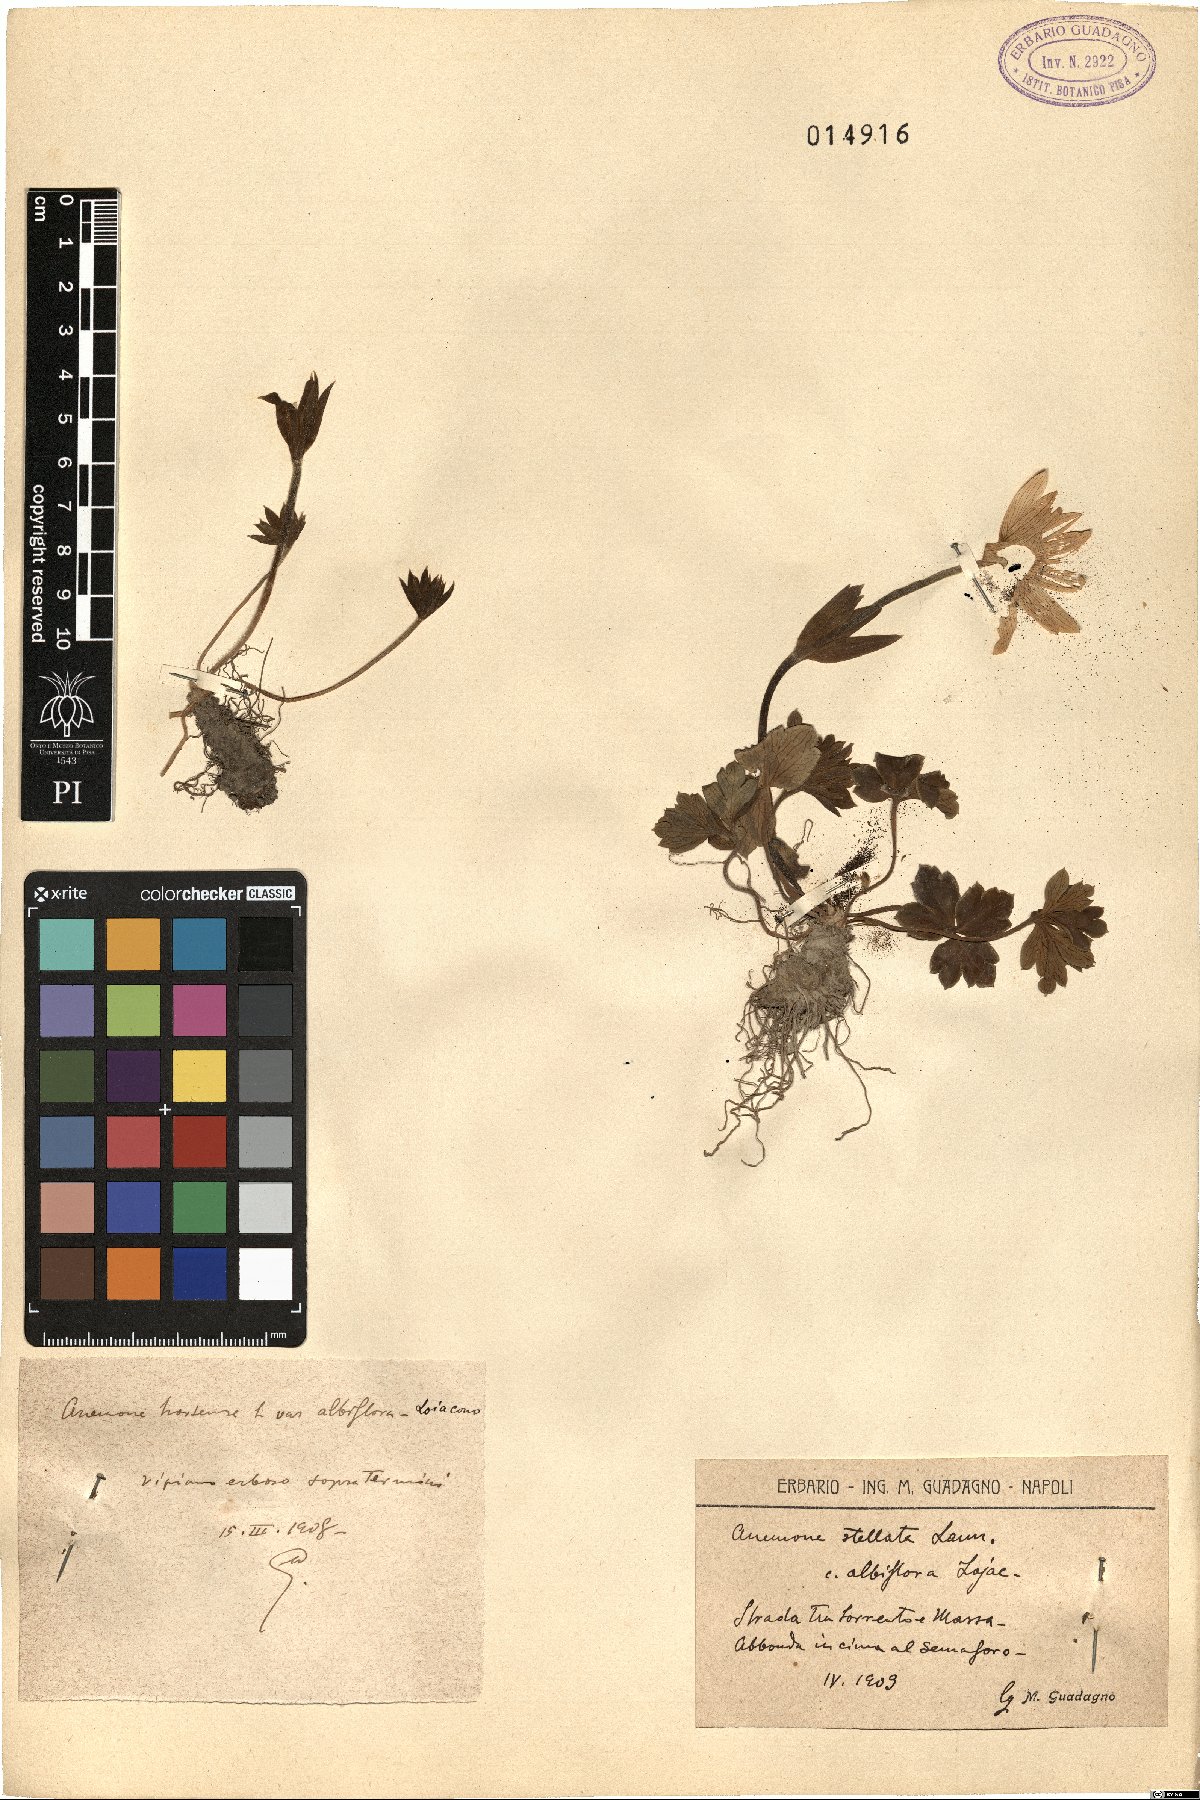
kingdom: Plantae
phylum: Tracheophyta
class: Magnoliopsida
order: Ranunculales
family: Ranunculaceae
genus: Anemone
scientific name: Anemone hortensis
